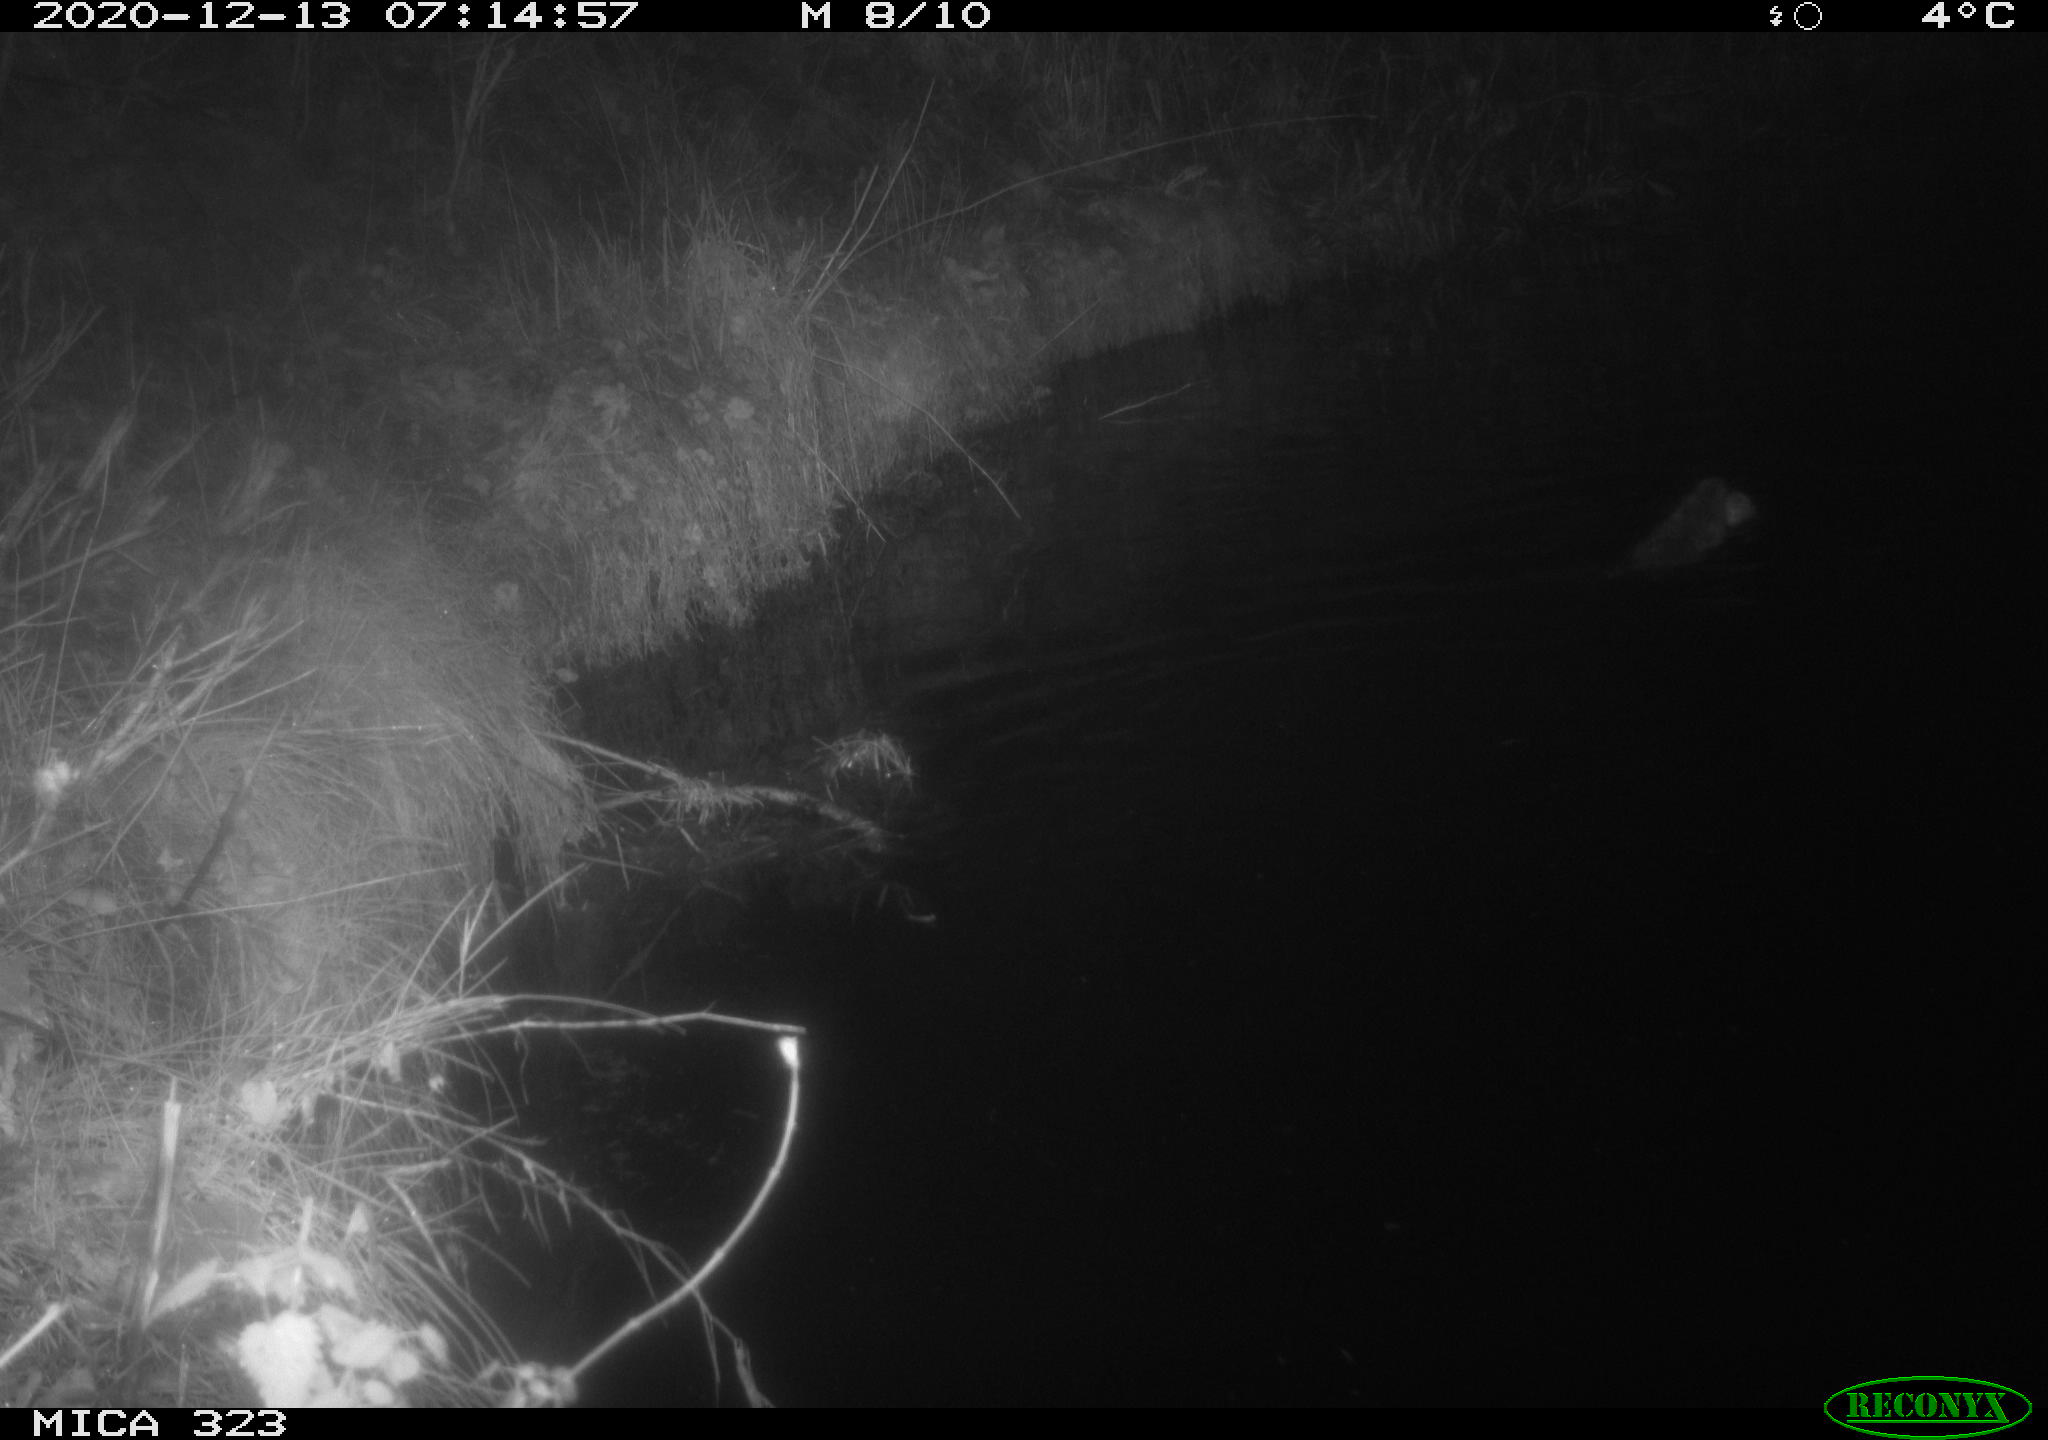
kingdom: Animalia
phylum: Chordata
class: Mammalia
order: Rodentia
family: Myocastoridae
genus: Myocastor
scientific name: Myocastor coypus
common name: Coypu
